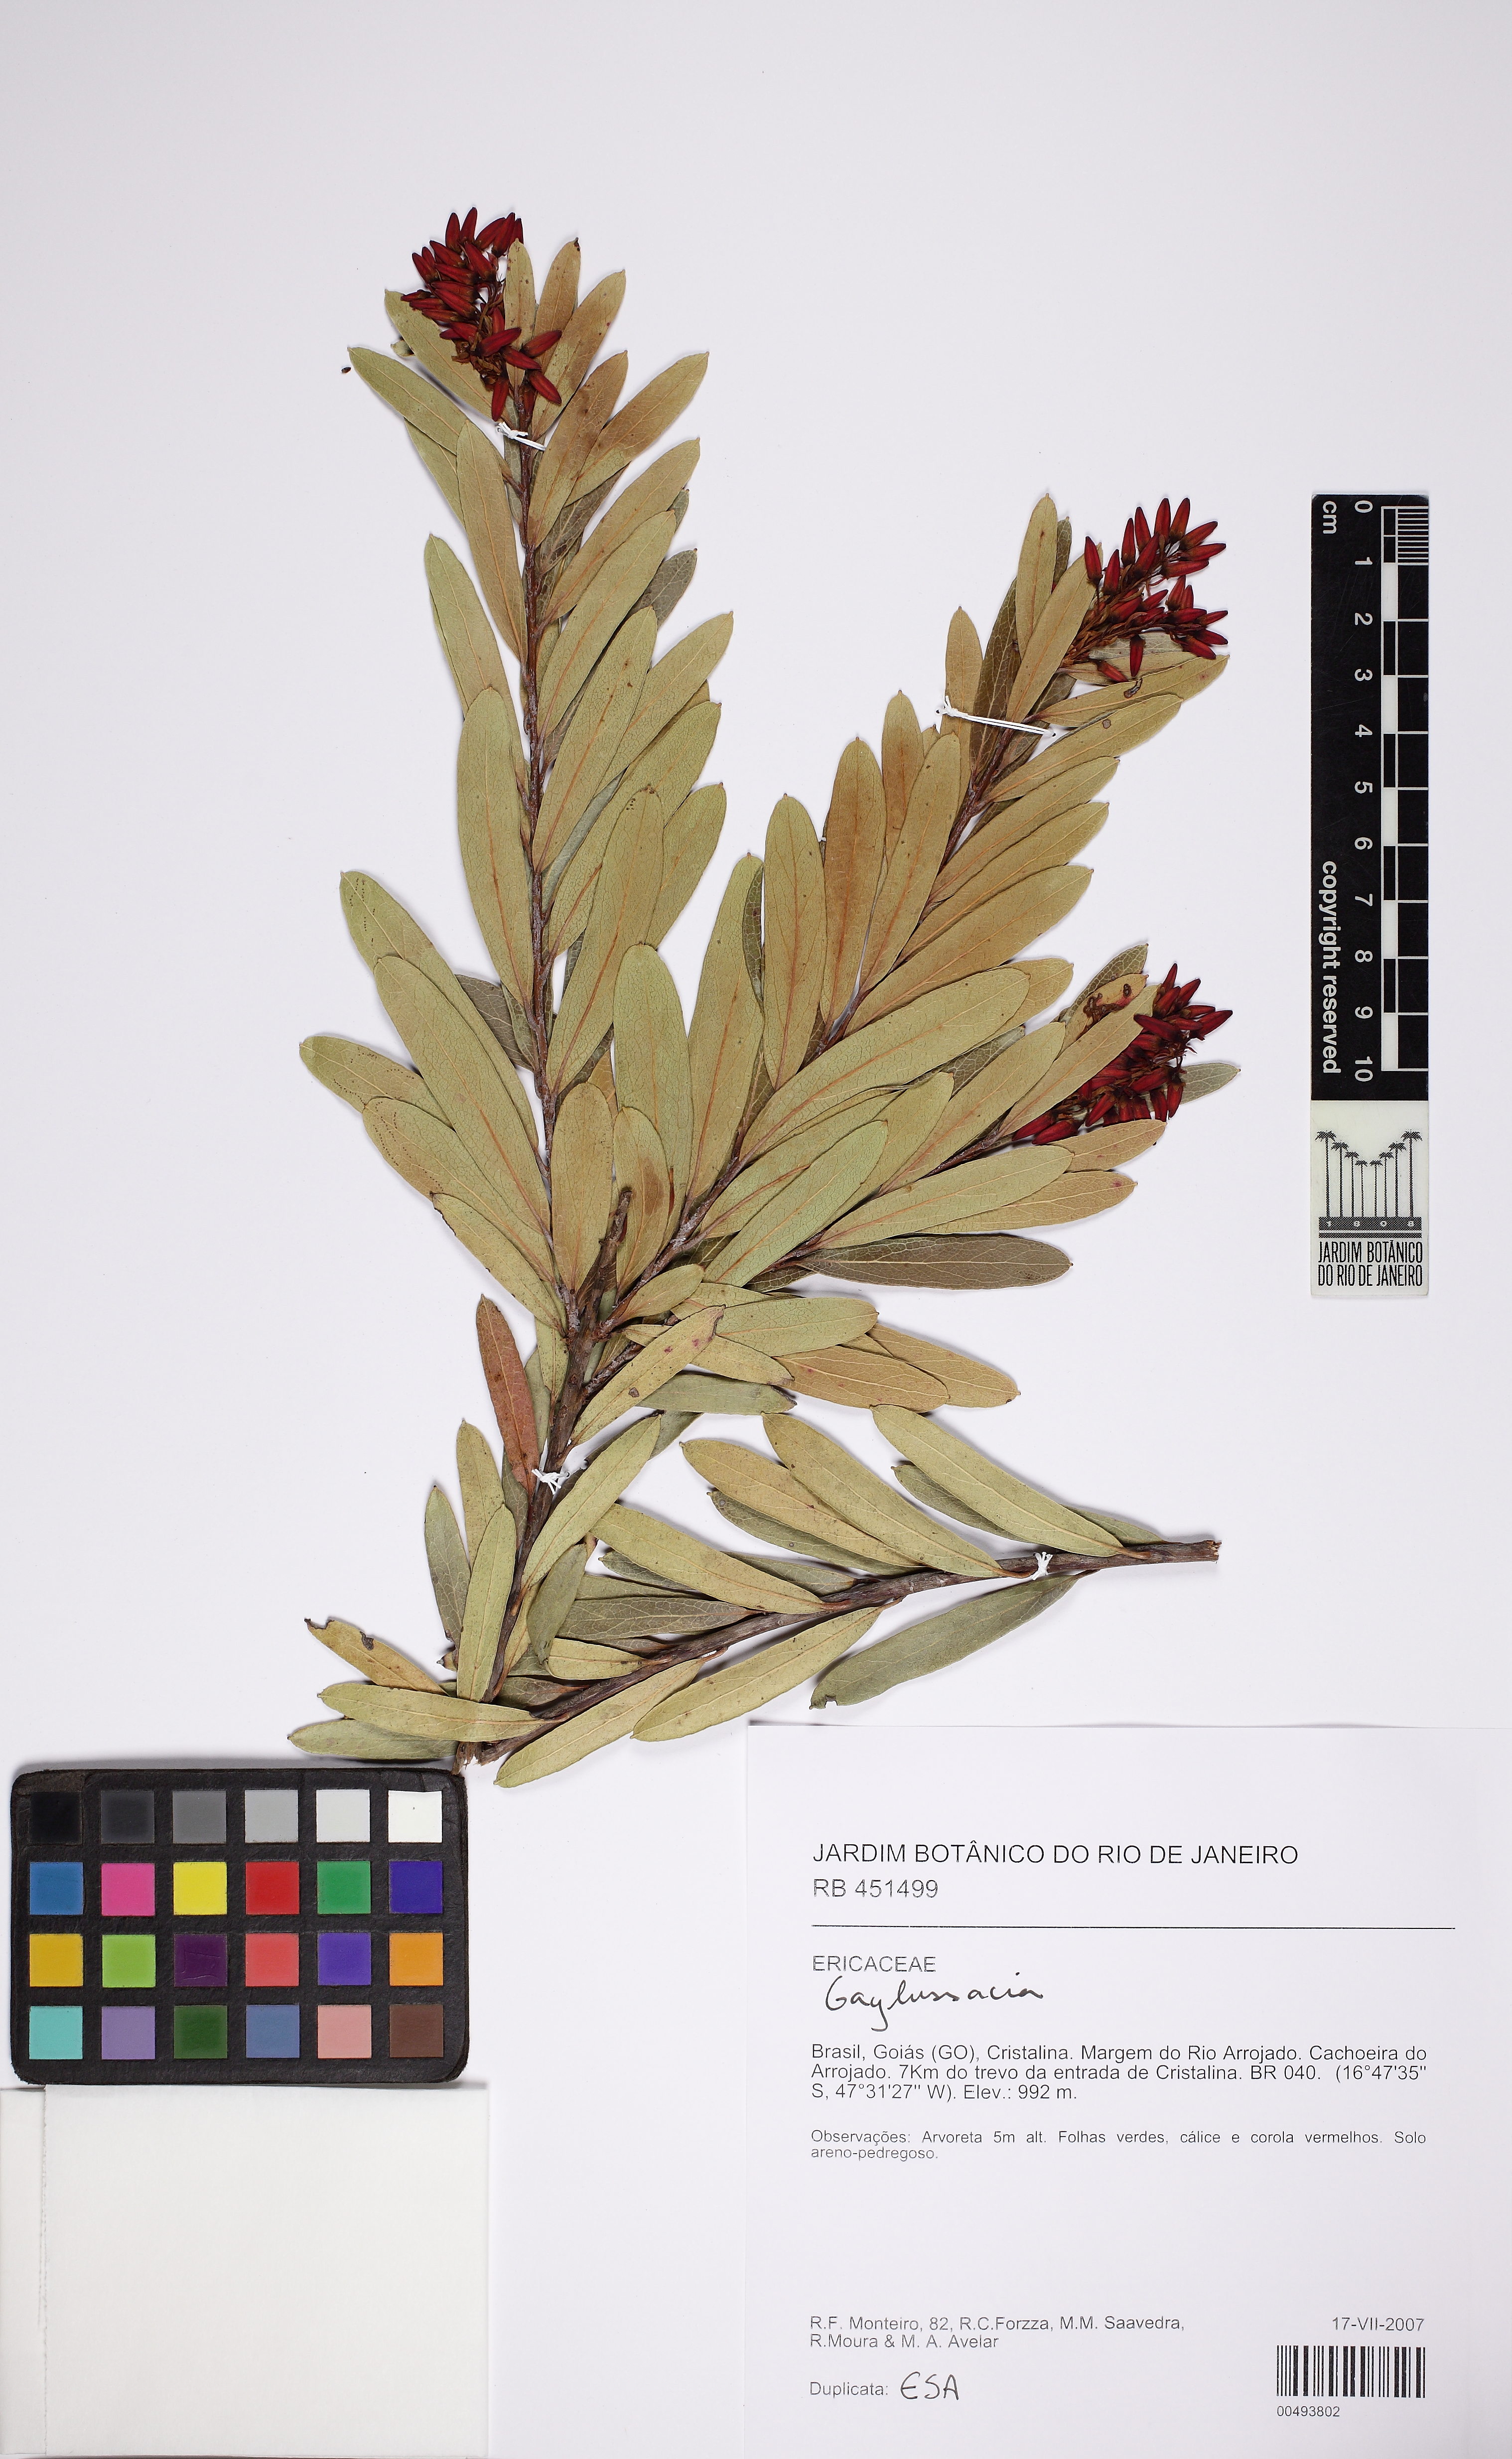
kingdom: Plantae
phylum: Tracheophyta
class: Magnoliopsida
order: Ericales
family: Ericaceae
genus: Gaylussacia
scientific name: Gaylussacia
